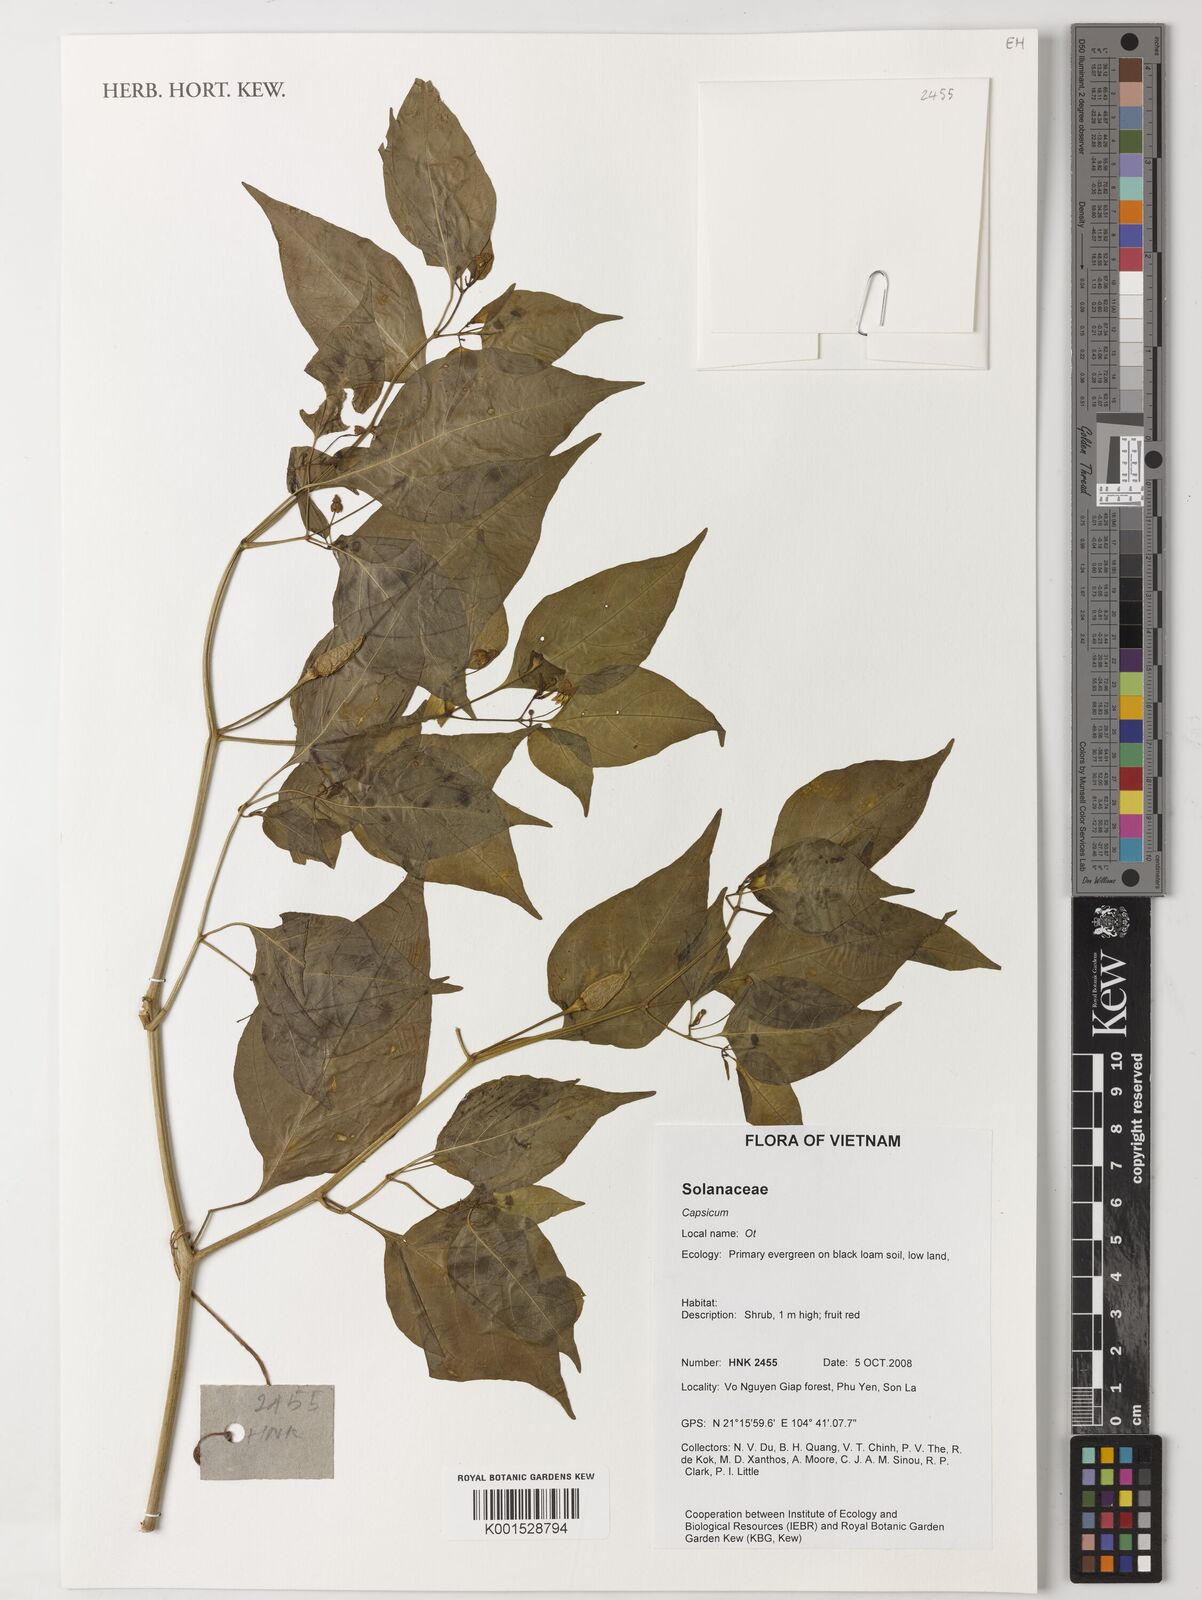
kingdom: Plantae
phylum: Tracheophyta
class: Magnoliopsida
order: Solanales
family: Solanaceae
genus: Capsicum
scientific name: Capsicum
